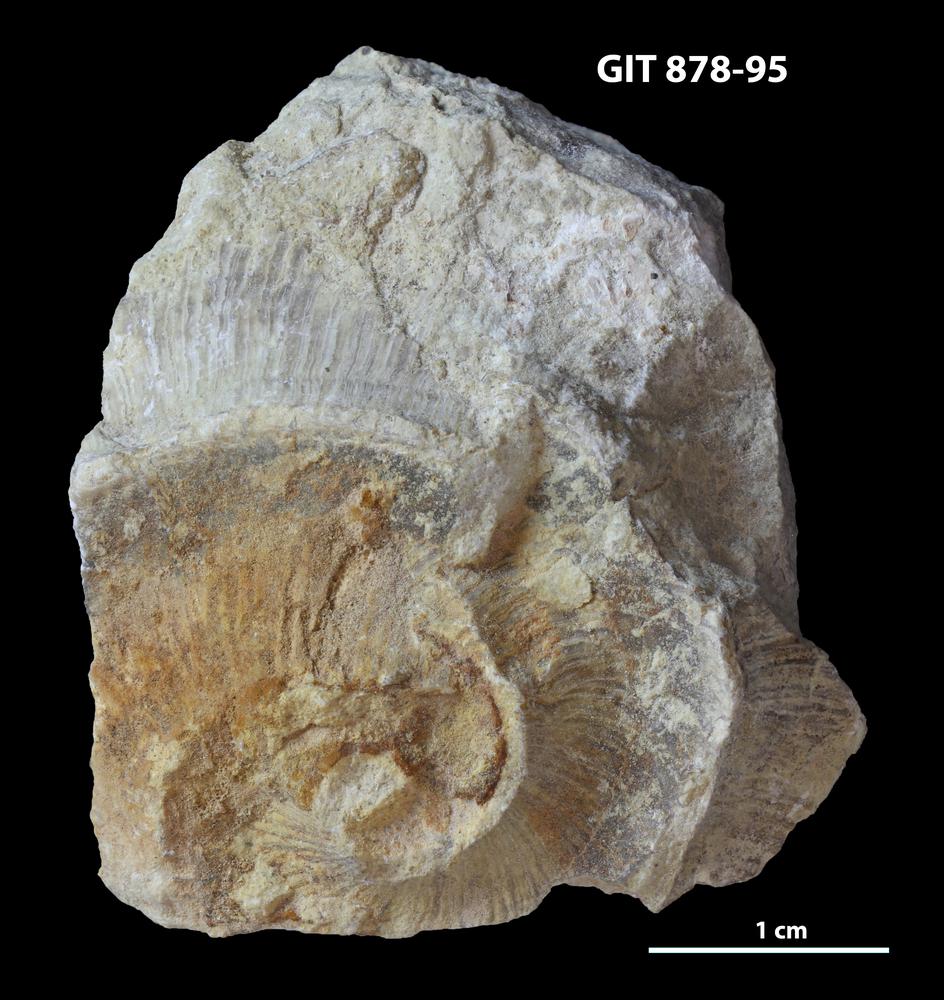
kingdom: Animalia
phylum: Mollusca
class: Cephalopoda
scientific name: Cephalopoda
